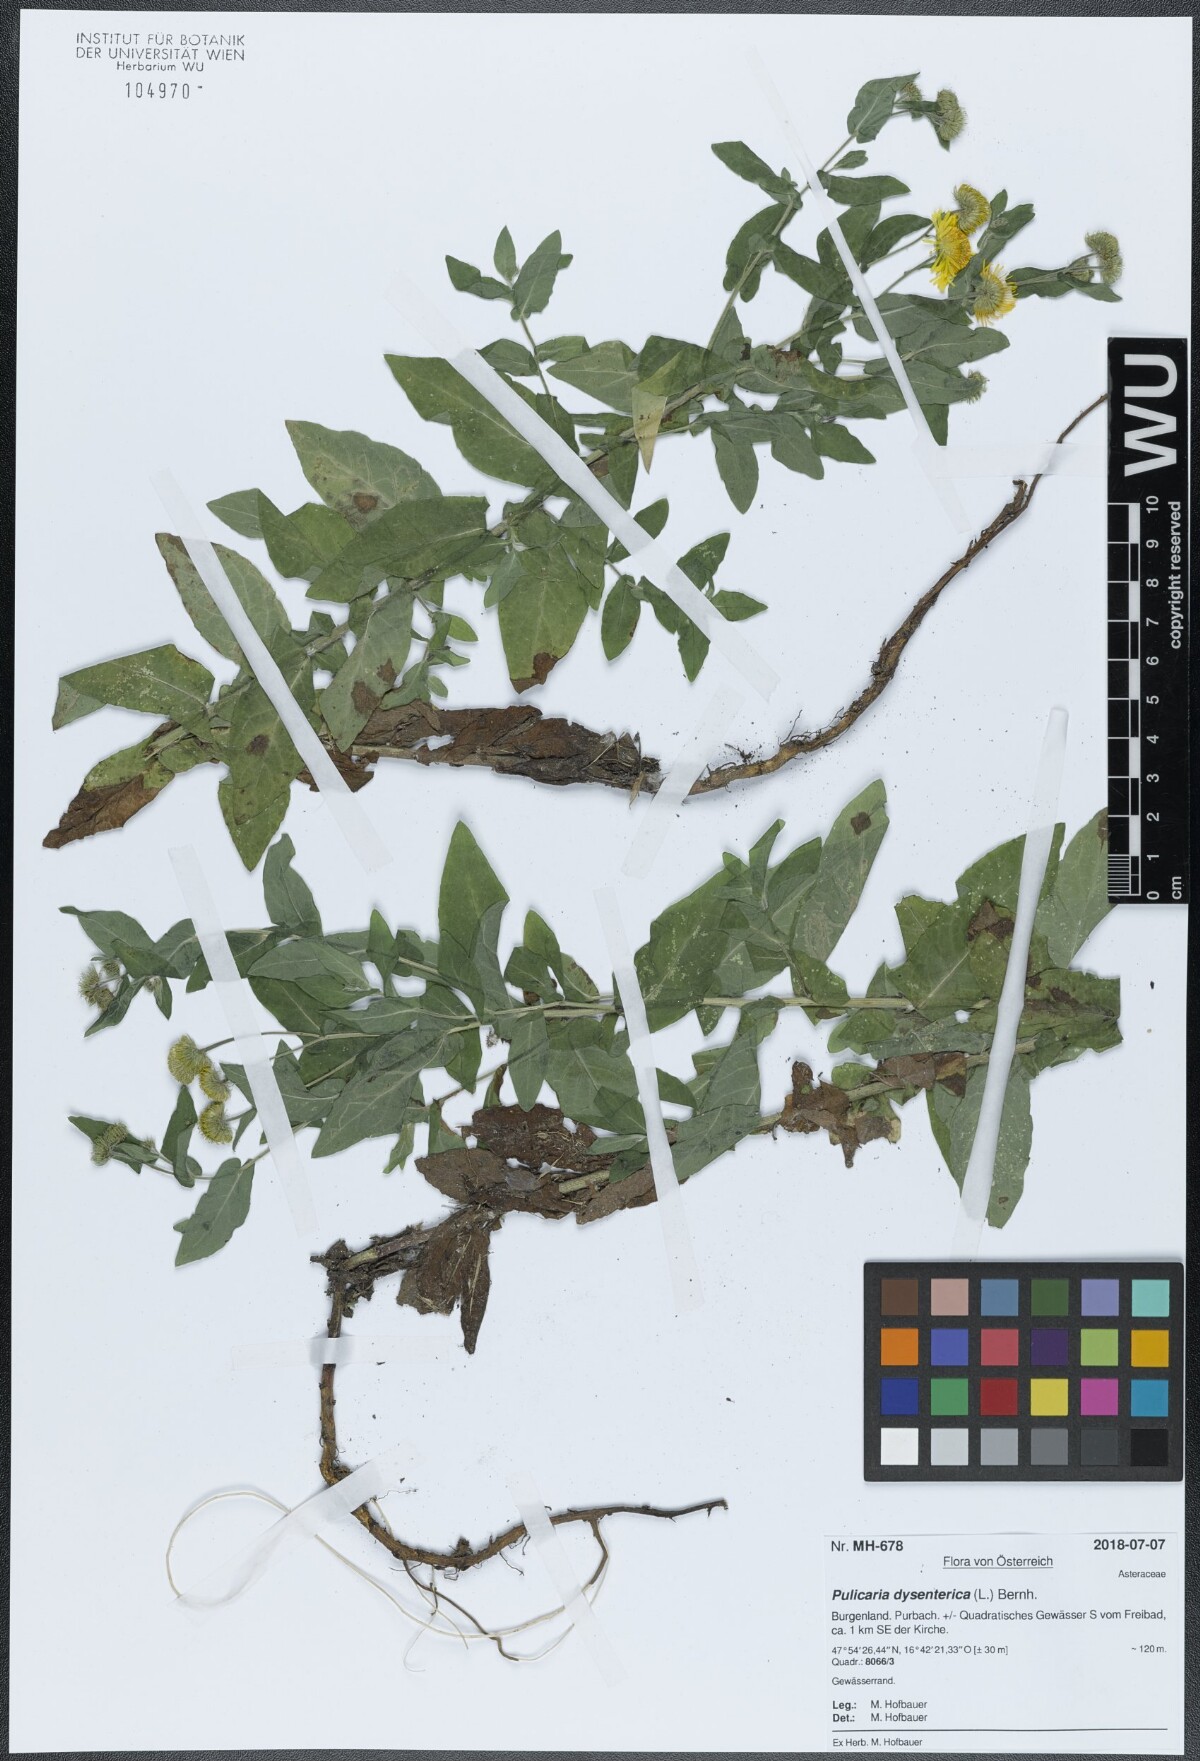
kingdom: Plantae
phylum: Tracheophyta
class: Magnoliopsida
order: Asterales
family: Asteraceae
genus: Pulicaria
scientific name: Pulicaria dysenterica
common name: Common fleabane
